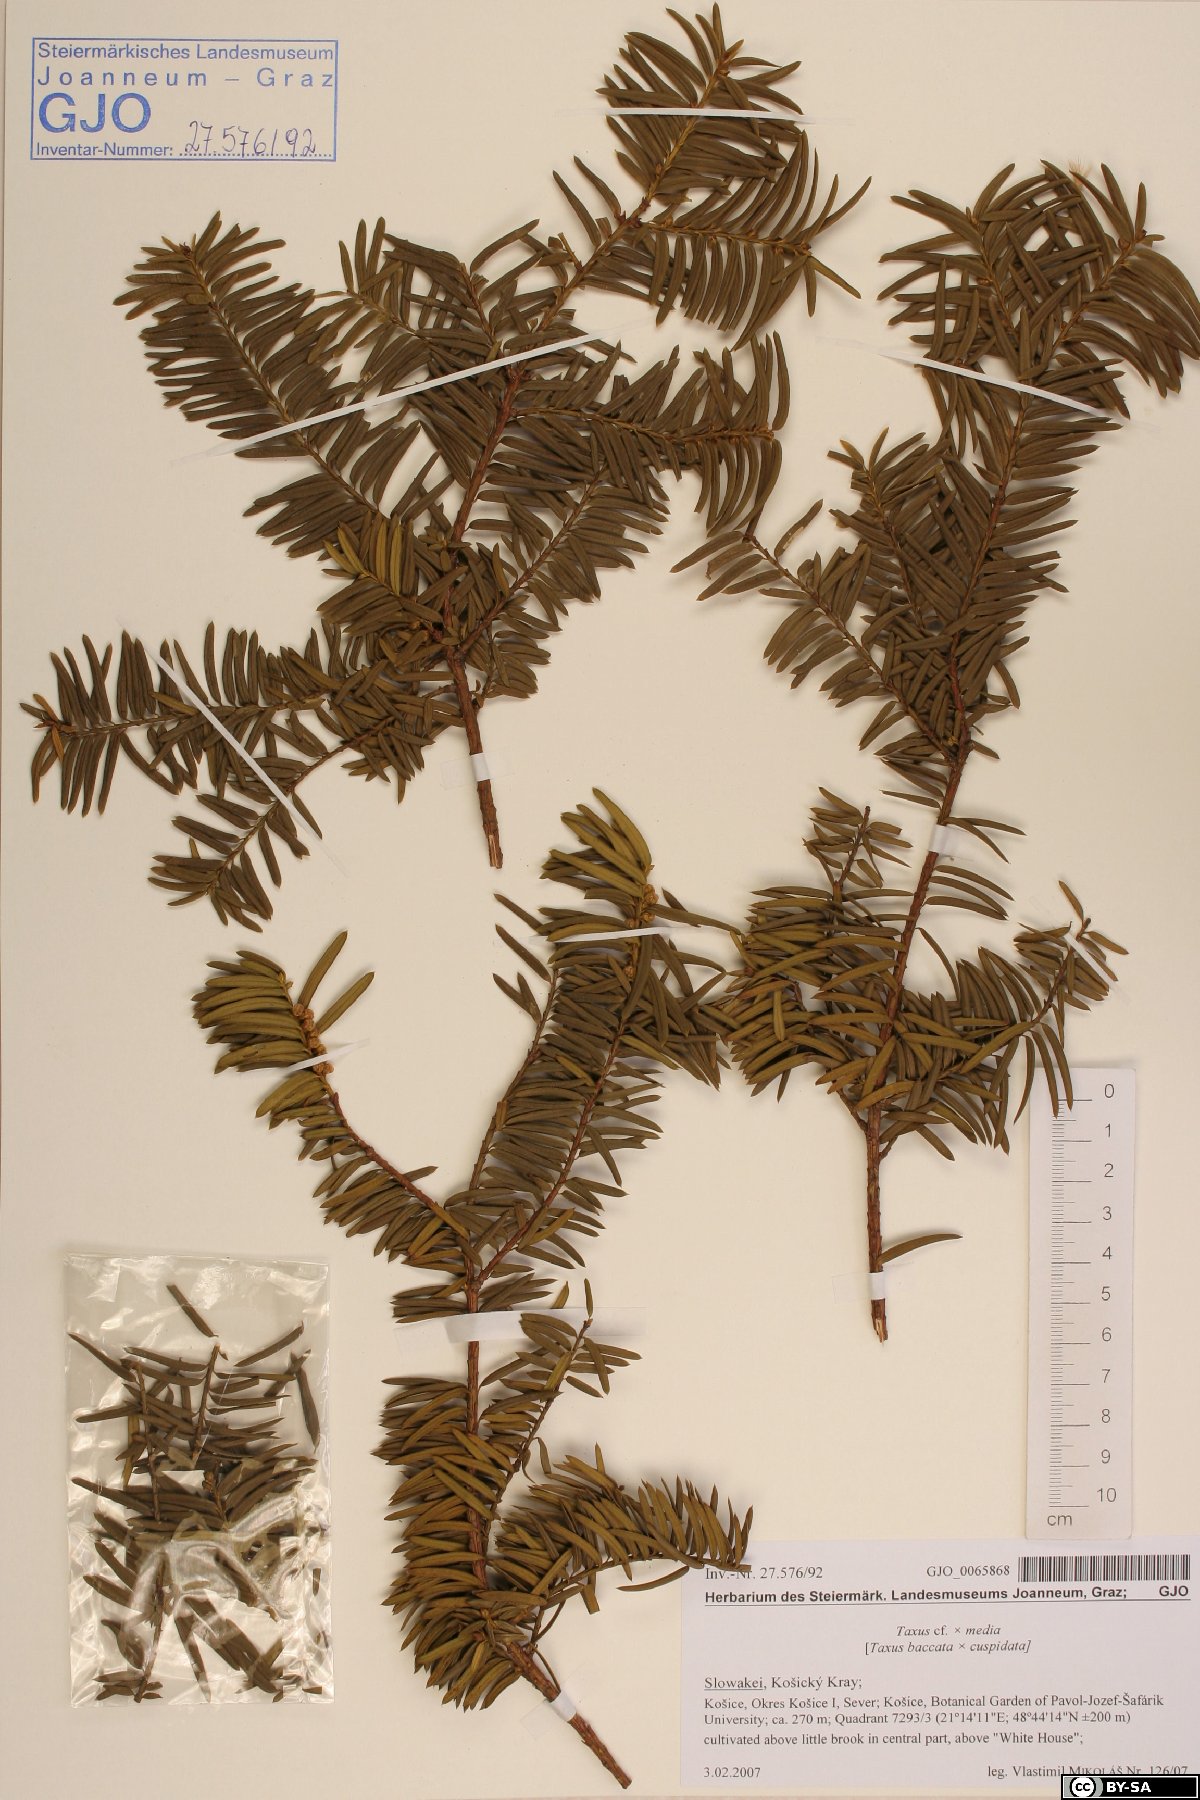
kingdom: Plantae
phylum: Tracheophyta
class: Pinopsida
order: Pinales
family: Taxaceae
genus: Taxus
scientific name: Taxus media
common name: Hybrid yew
